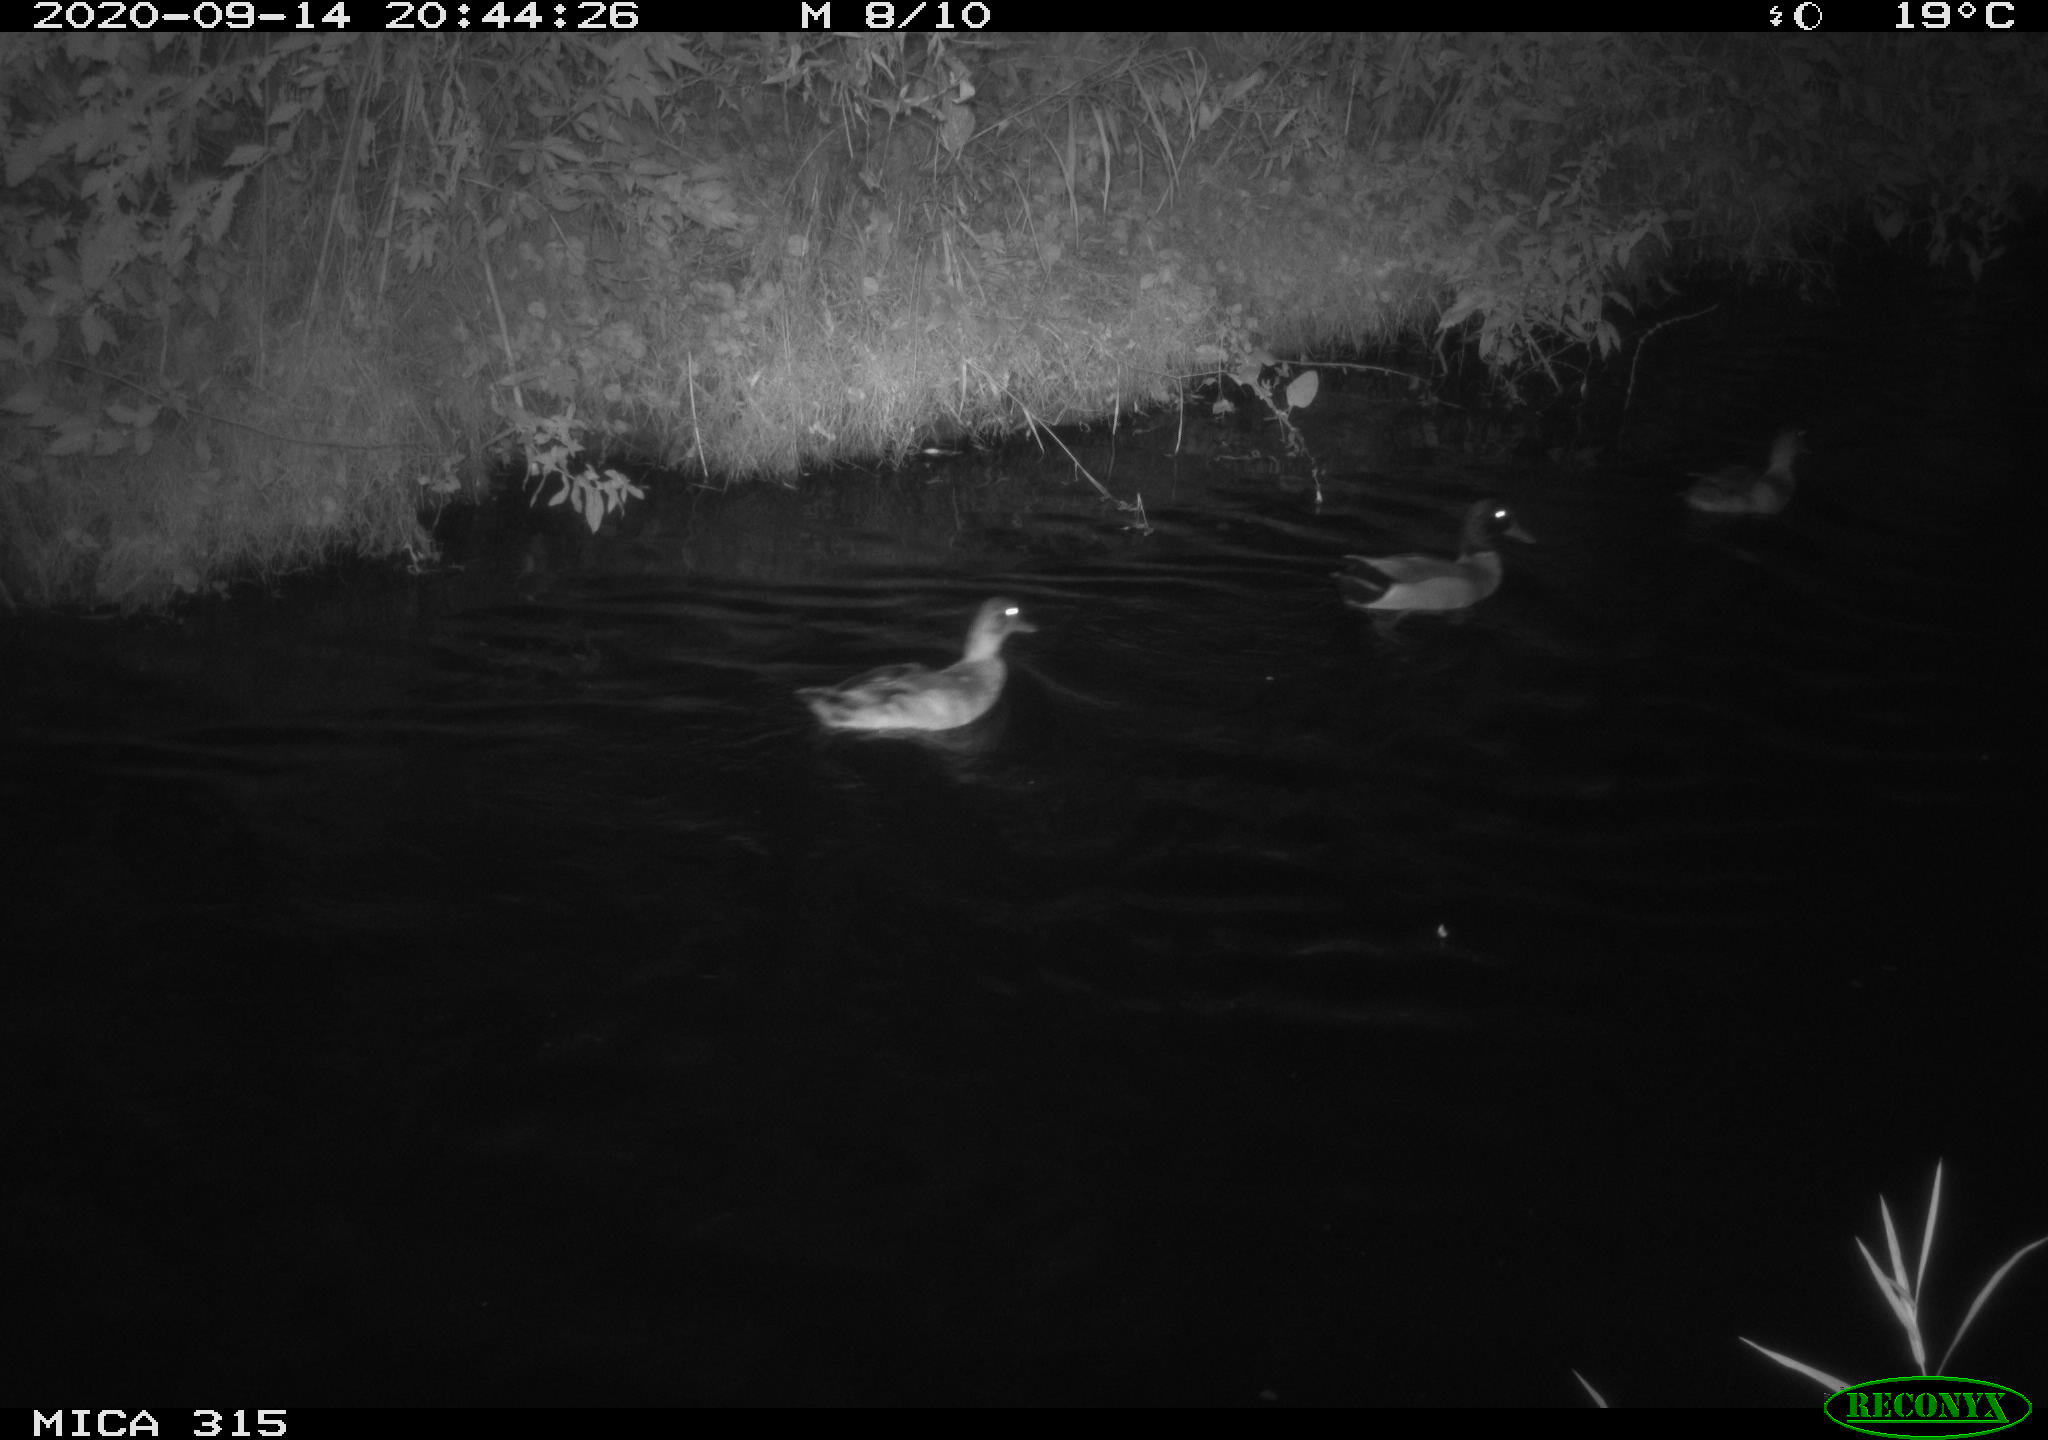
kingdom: Animalia
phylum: Chordata
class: Aves
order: Anseriformes
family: Anatidae
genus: Anas
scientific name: Anas platyrhynchos
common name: Mallard
